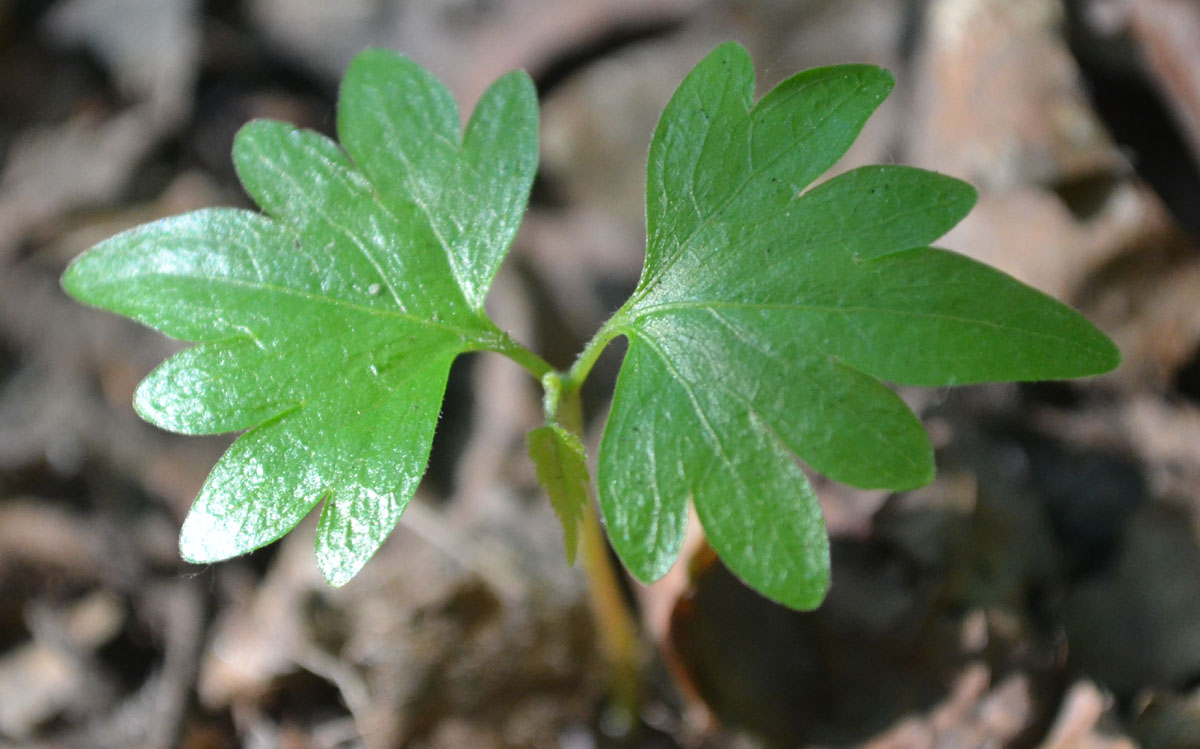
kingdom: Plantae
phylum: Tracheophyta
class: Magnoliopsida
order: Malvales
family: Malvaceae
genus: Tilia
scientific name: Tilia
